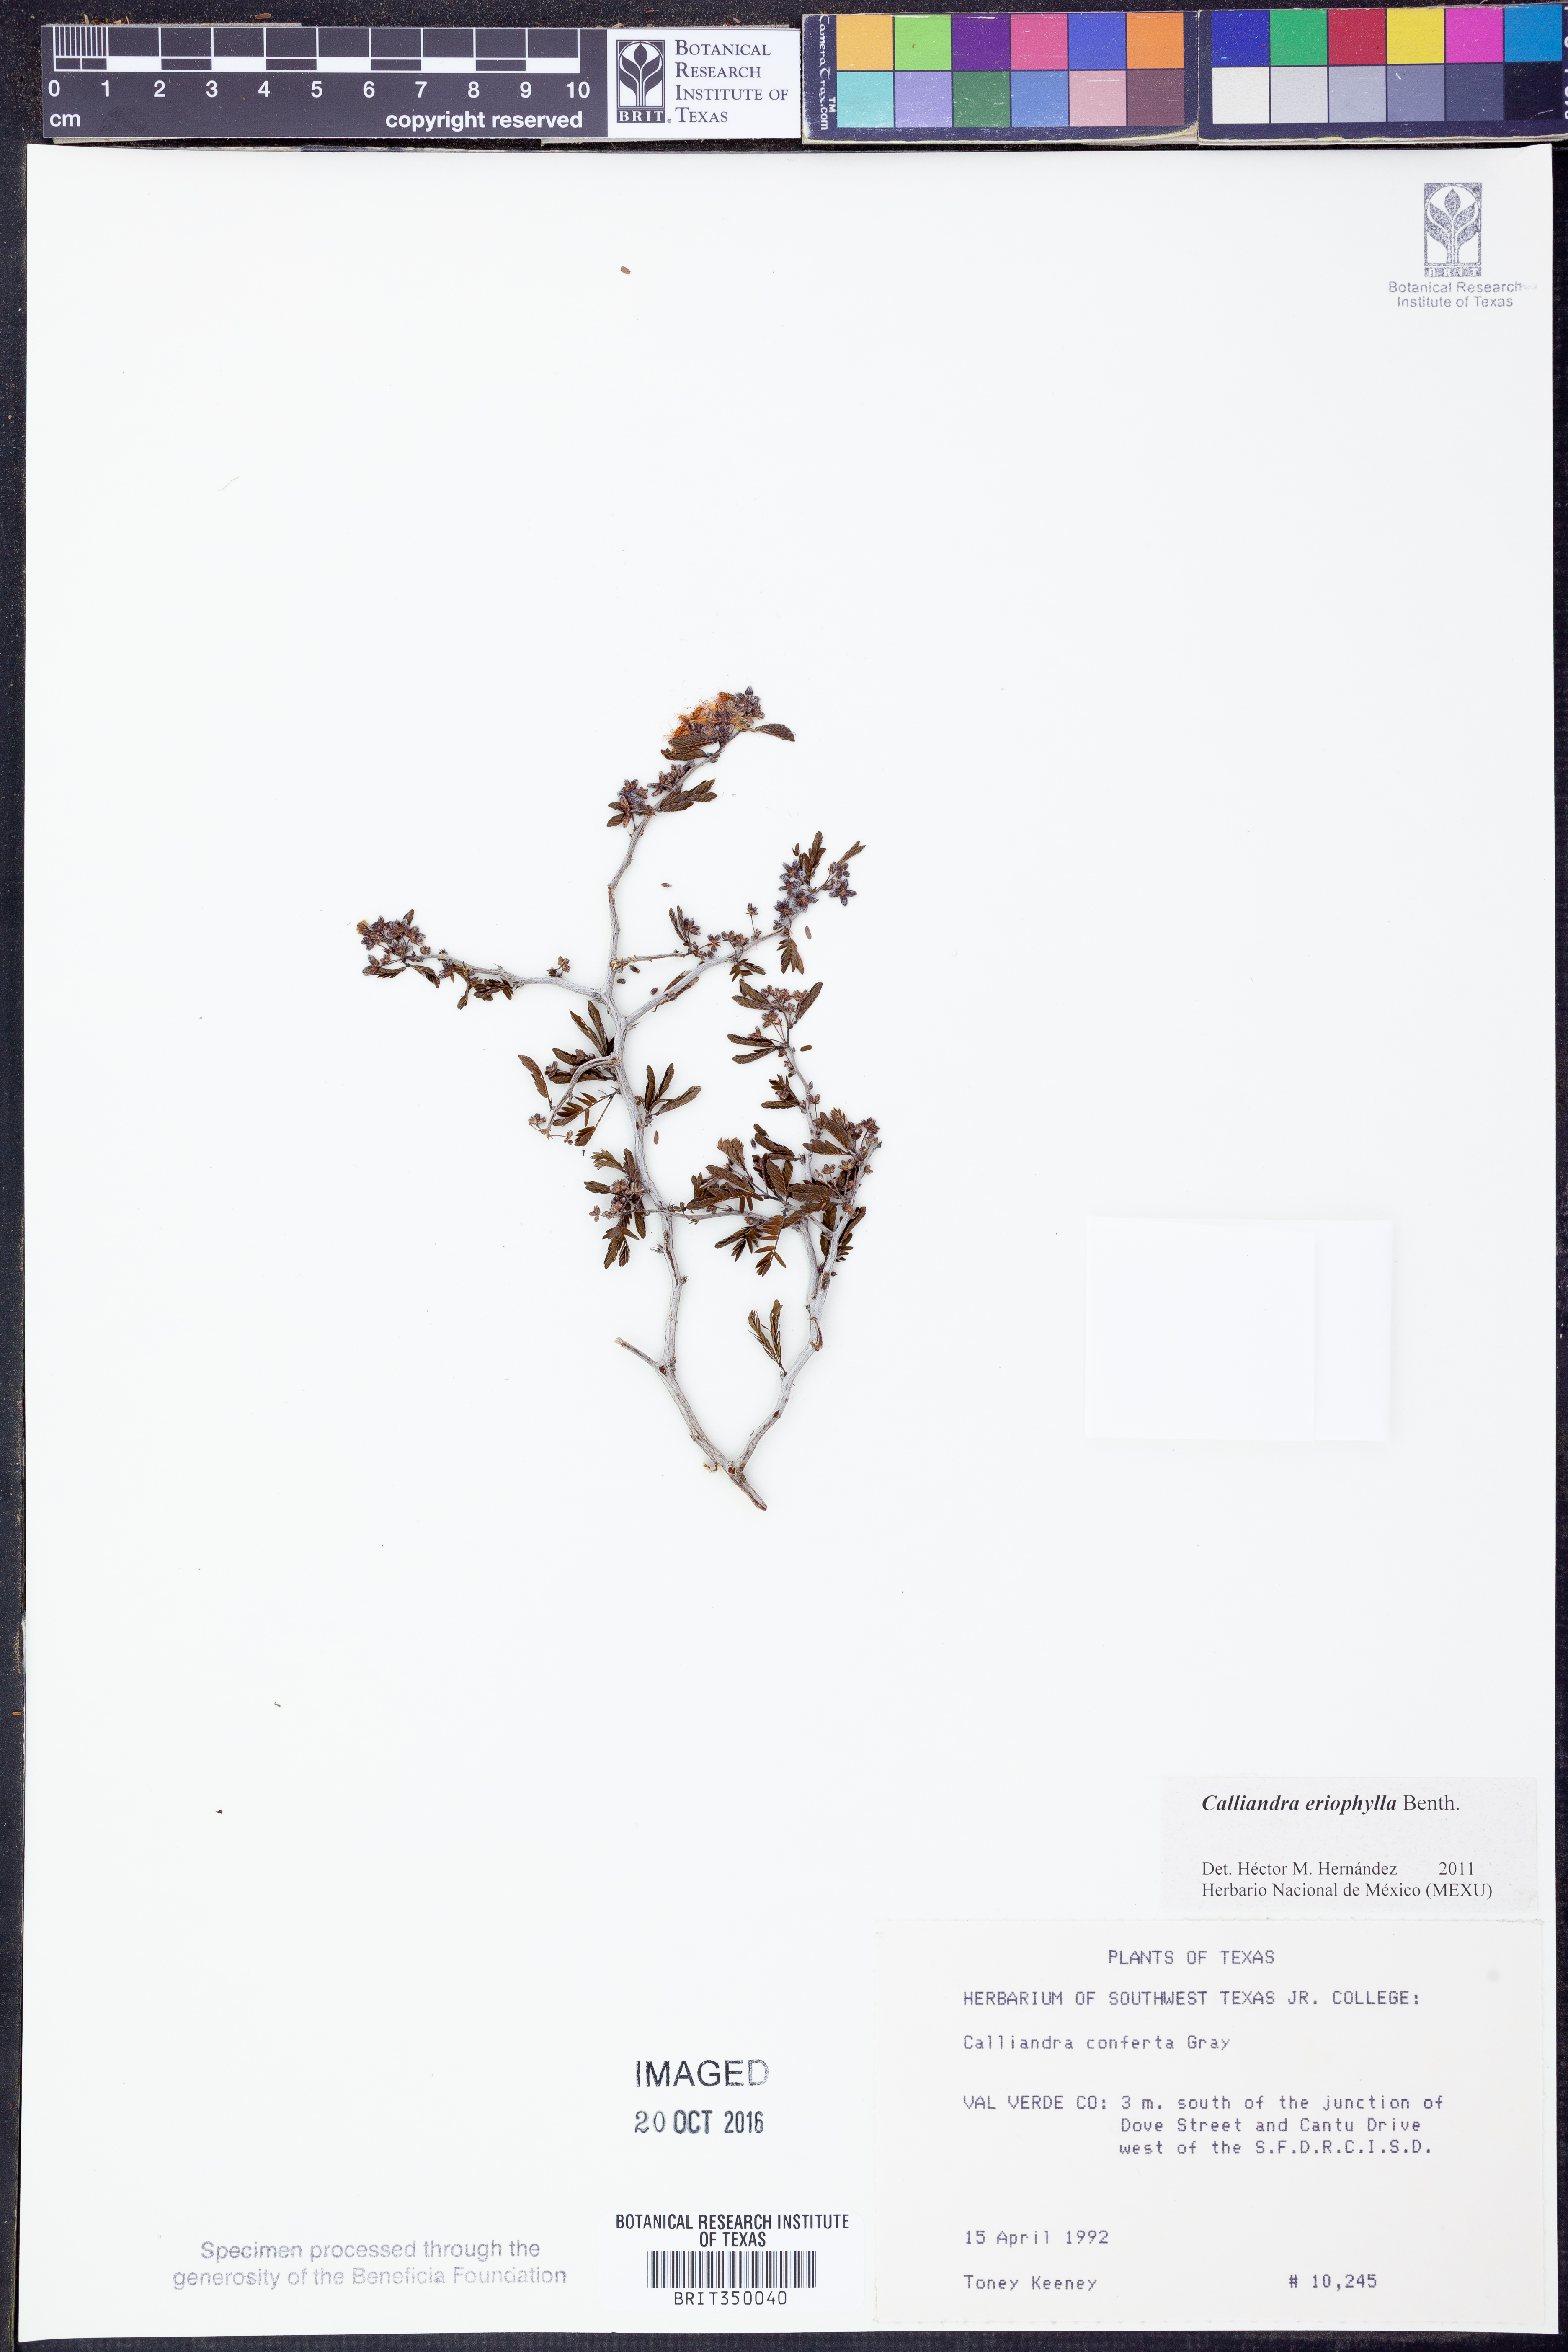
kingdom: Plantae
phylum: Tracheophyta
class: Magnoliopsida
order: Fabales
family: Fabaceae
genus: Calliandra
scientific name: Calliandra eriophylla
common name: Fairy-duster
